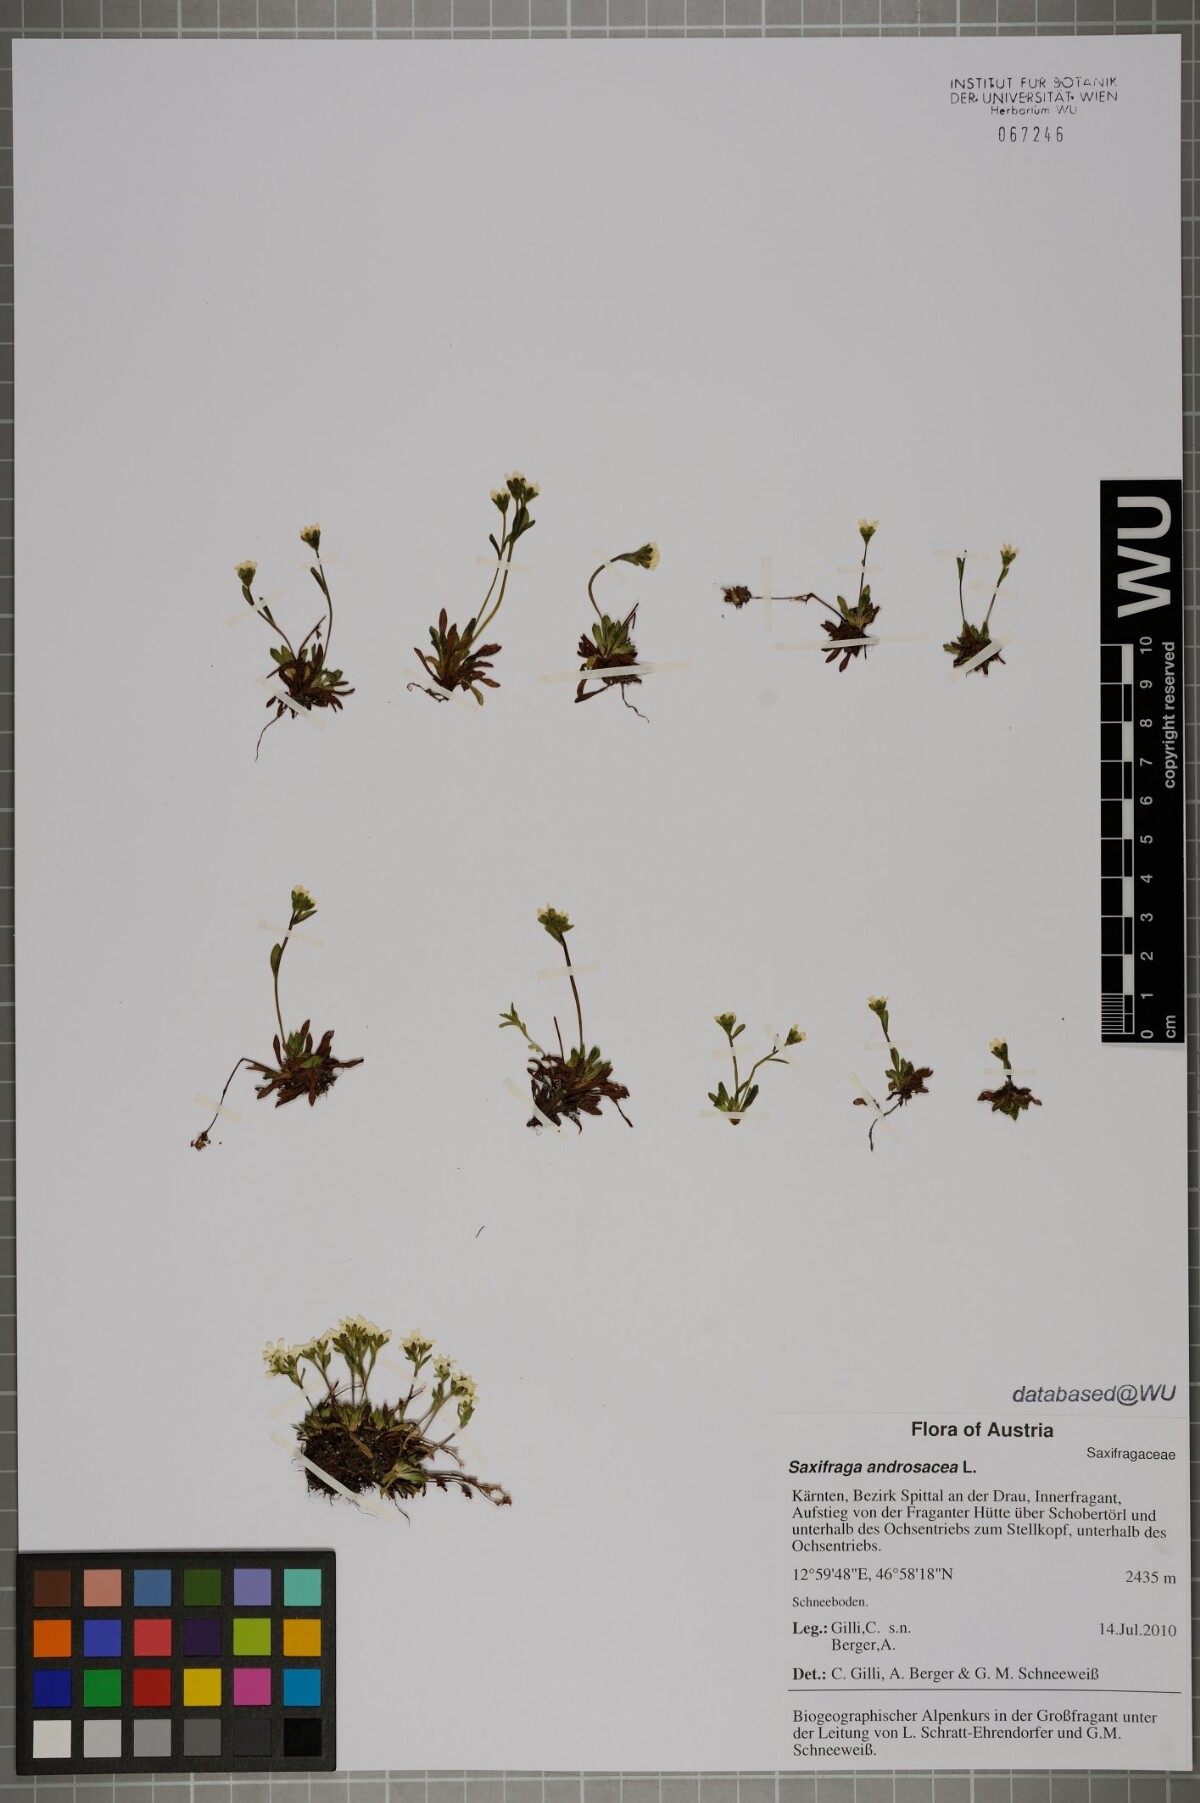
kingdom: Plantae
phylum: Tracheophyta
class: Magnoliopsida
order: Saxifragales
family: Saxifragaceae
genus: Saxifraga
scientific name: Saxifraga androsacea
